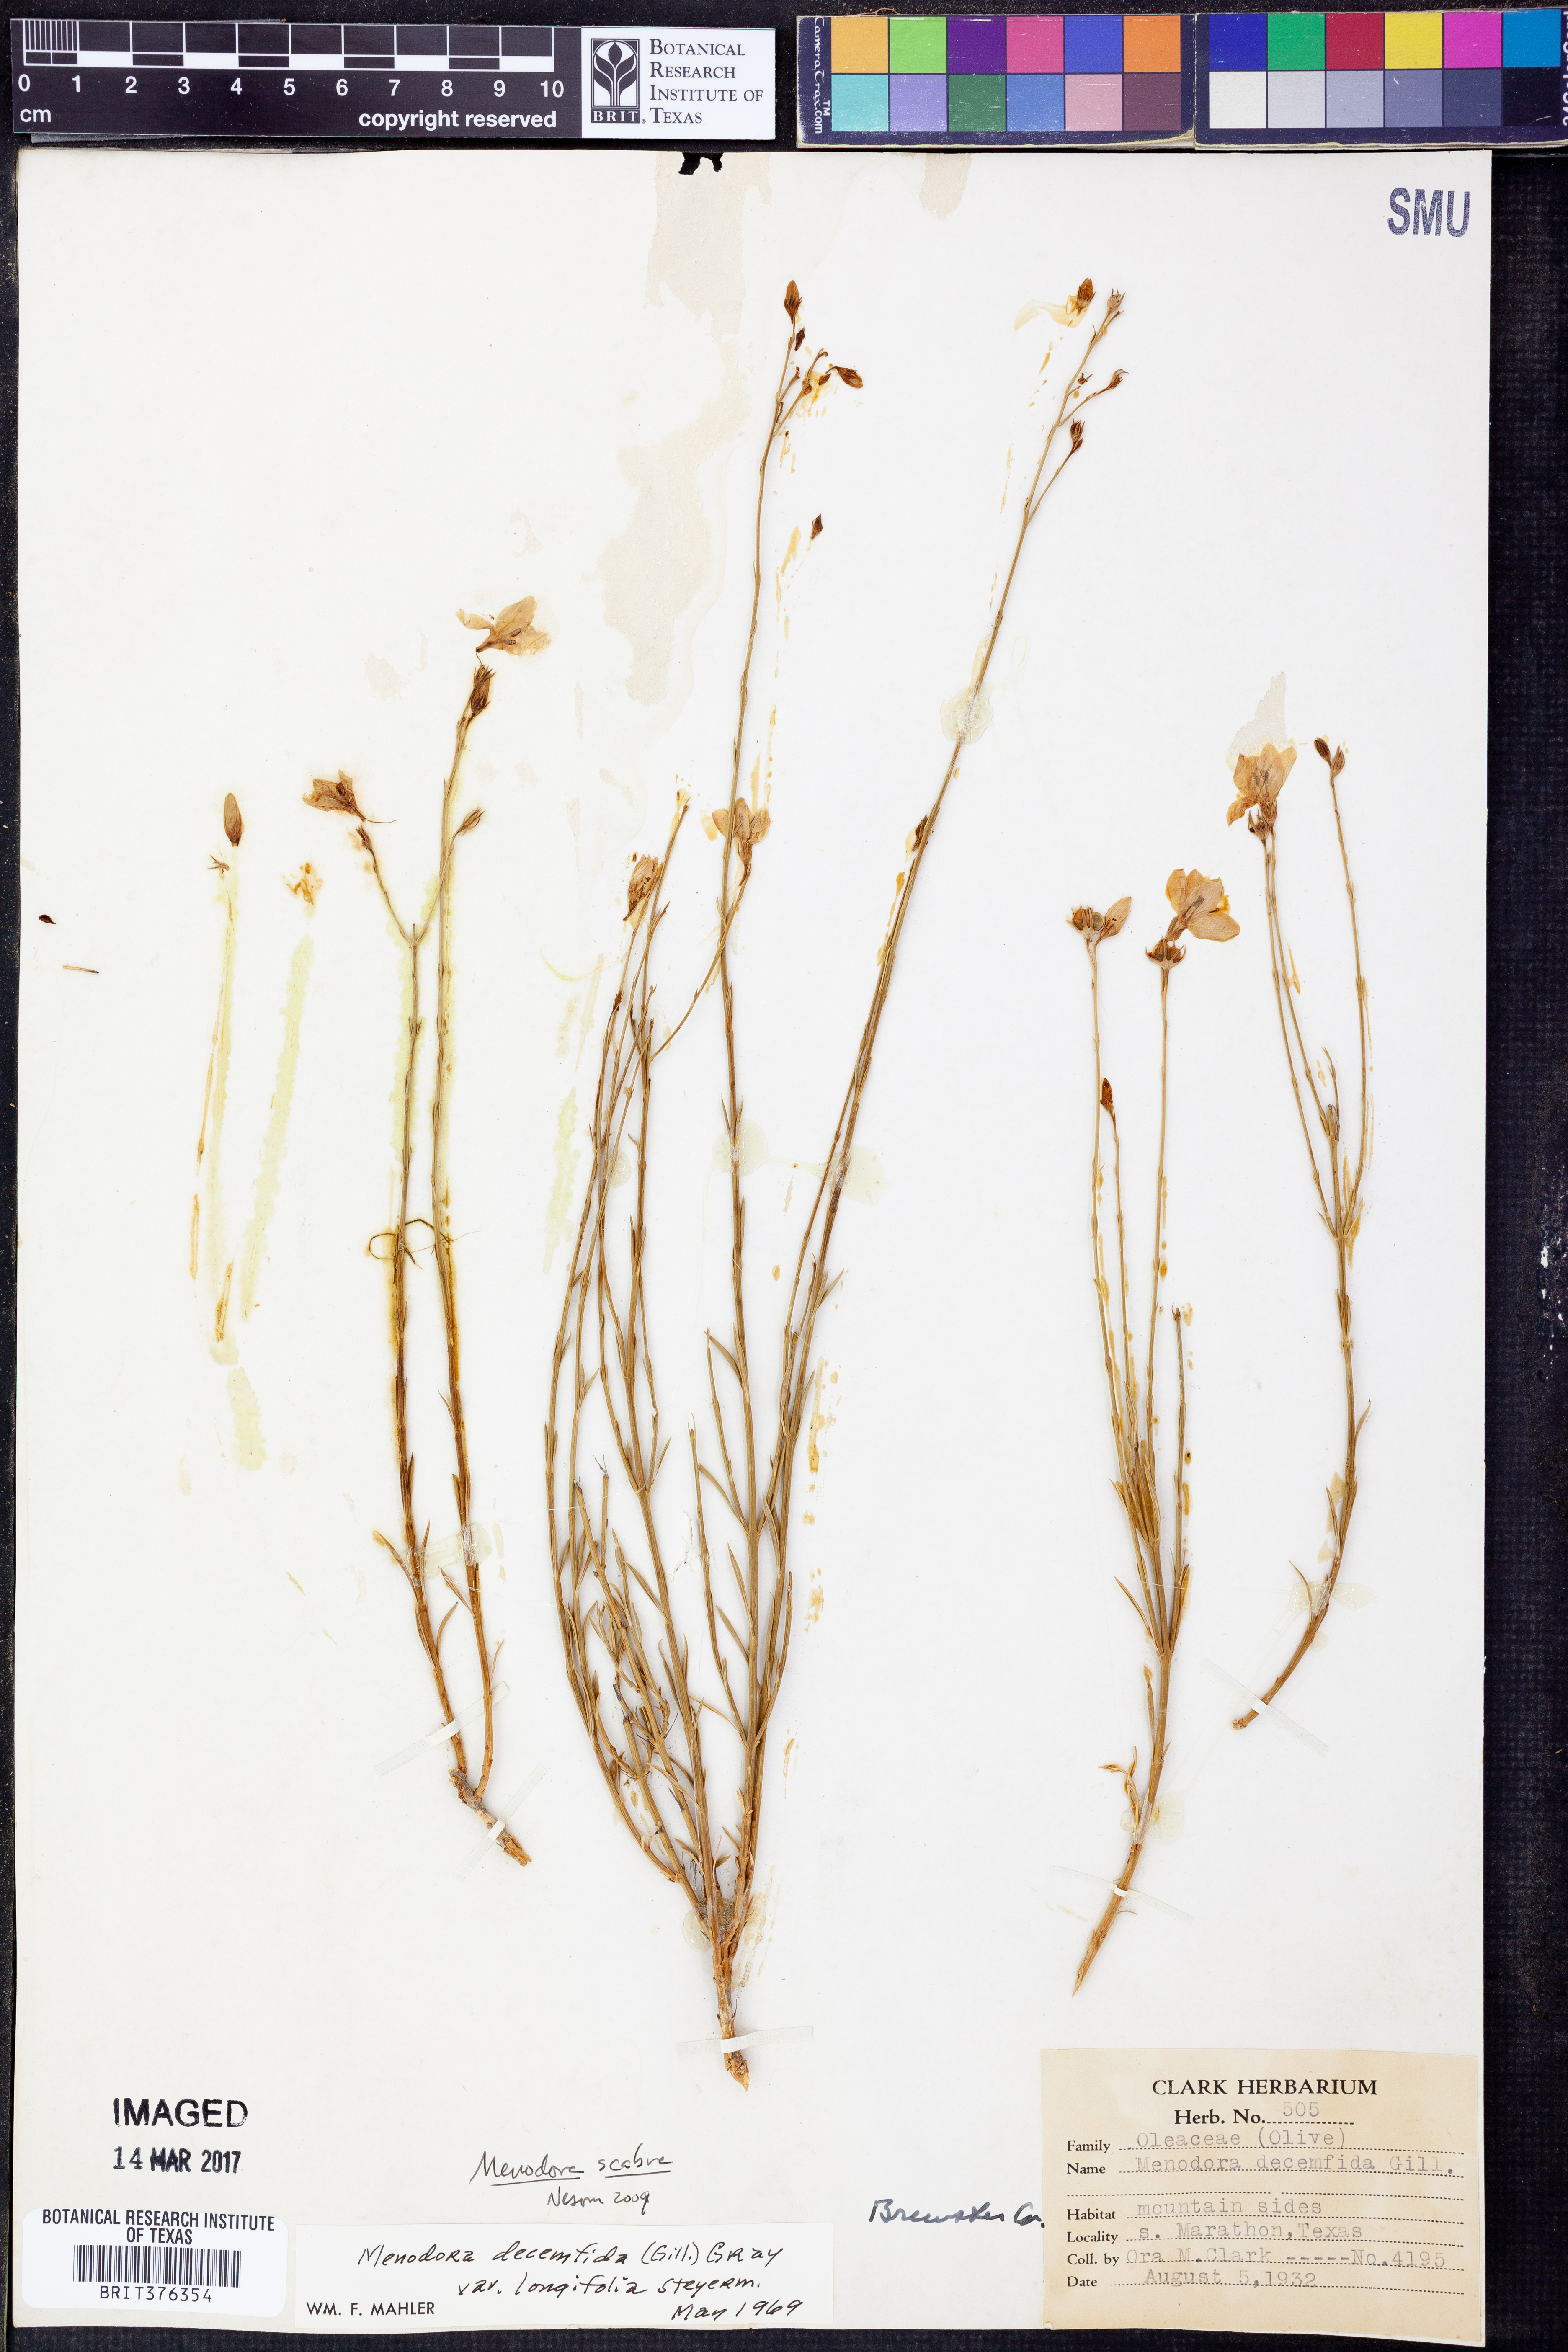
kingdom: Plantae
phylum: Tracheophyta
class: Magnoliopsida
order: Lamiales
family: Oleaceae
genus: Menodora
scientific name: Menodora scabra
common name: Rough menodora
